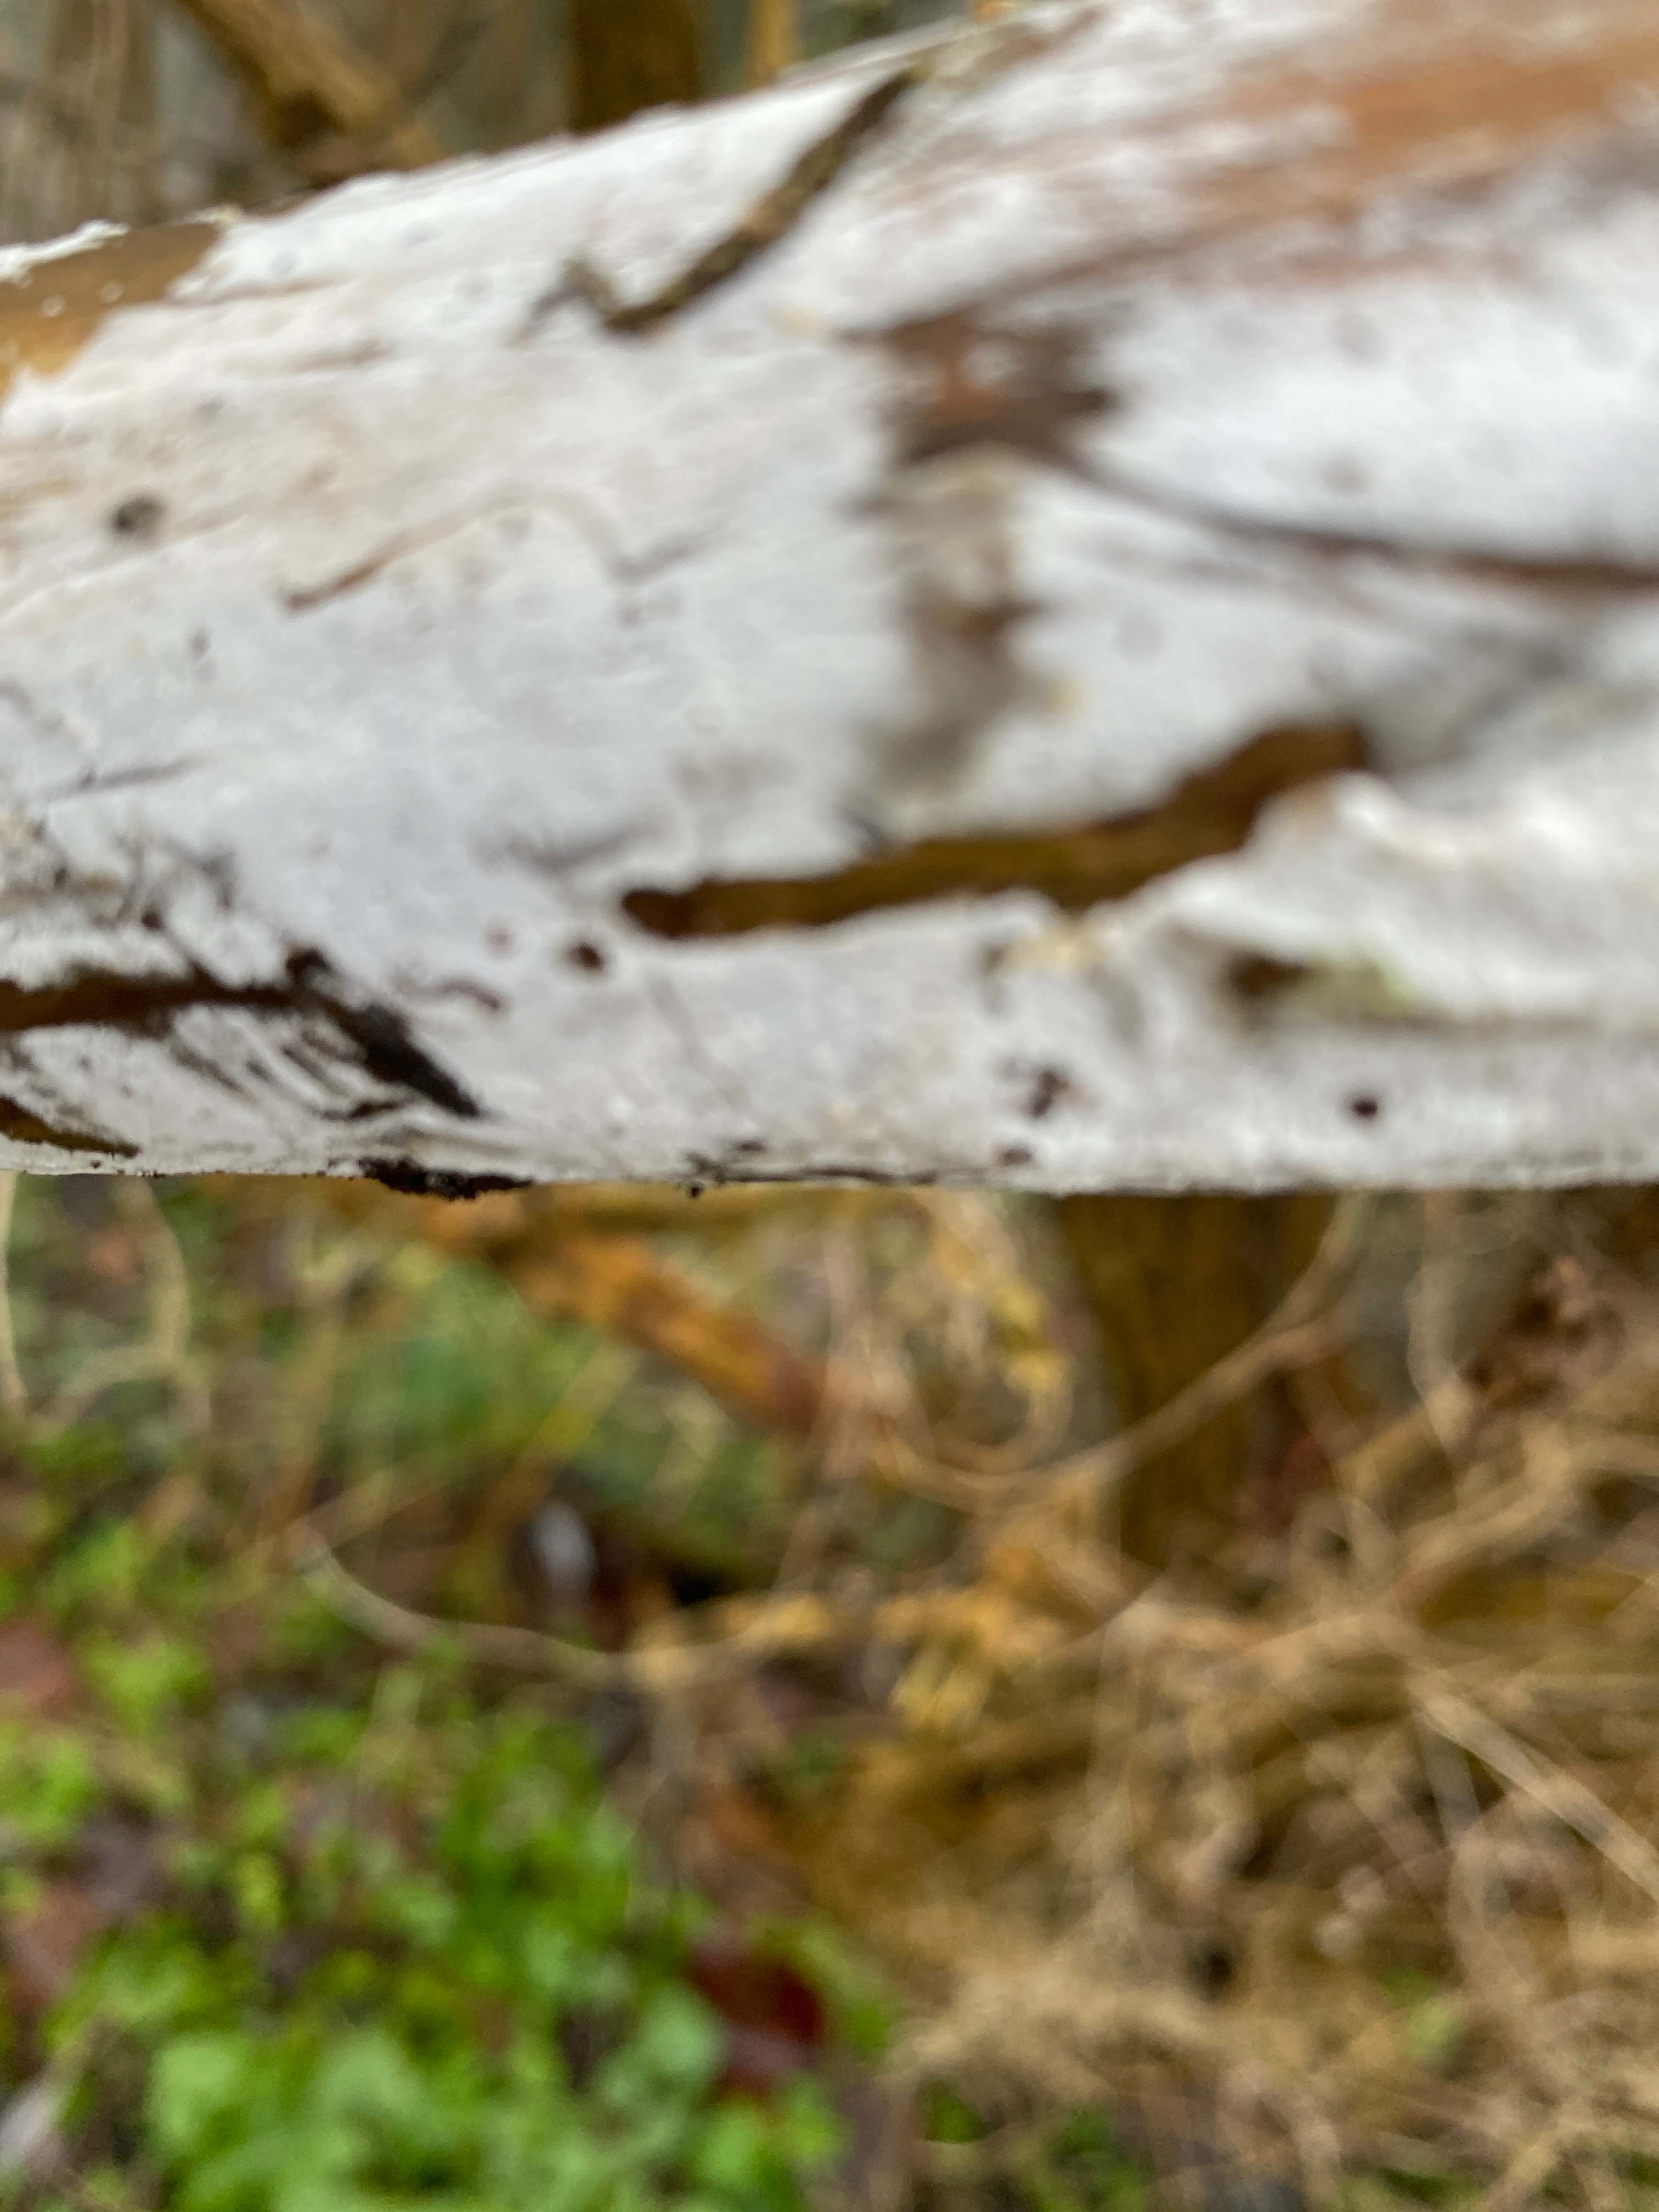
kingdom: Fungi
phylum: Basidiomycota
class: Agaricomycetes
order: Corticiales
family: Corticiaceae
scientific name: Corticiaceae
